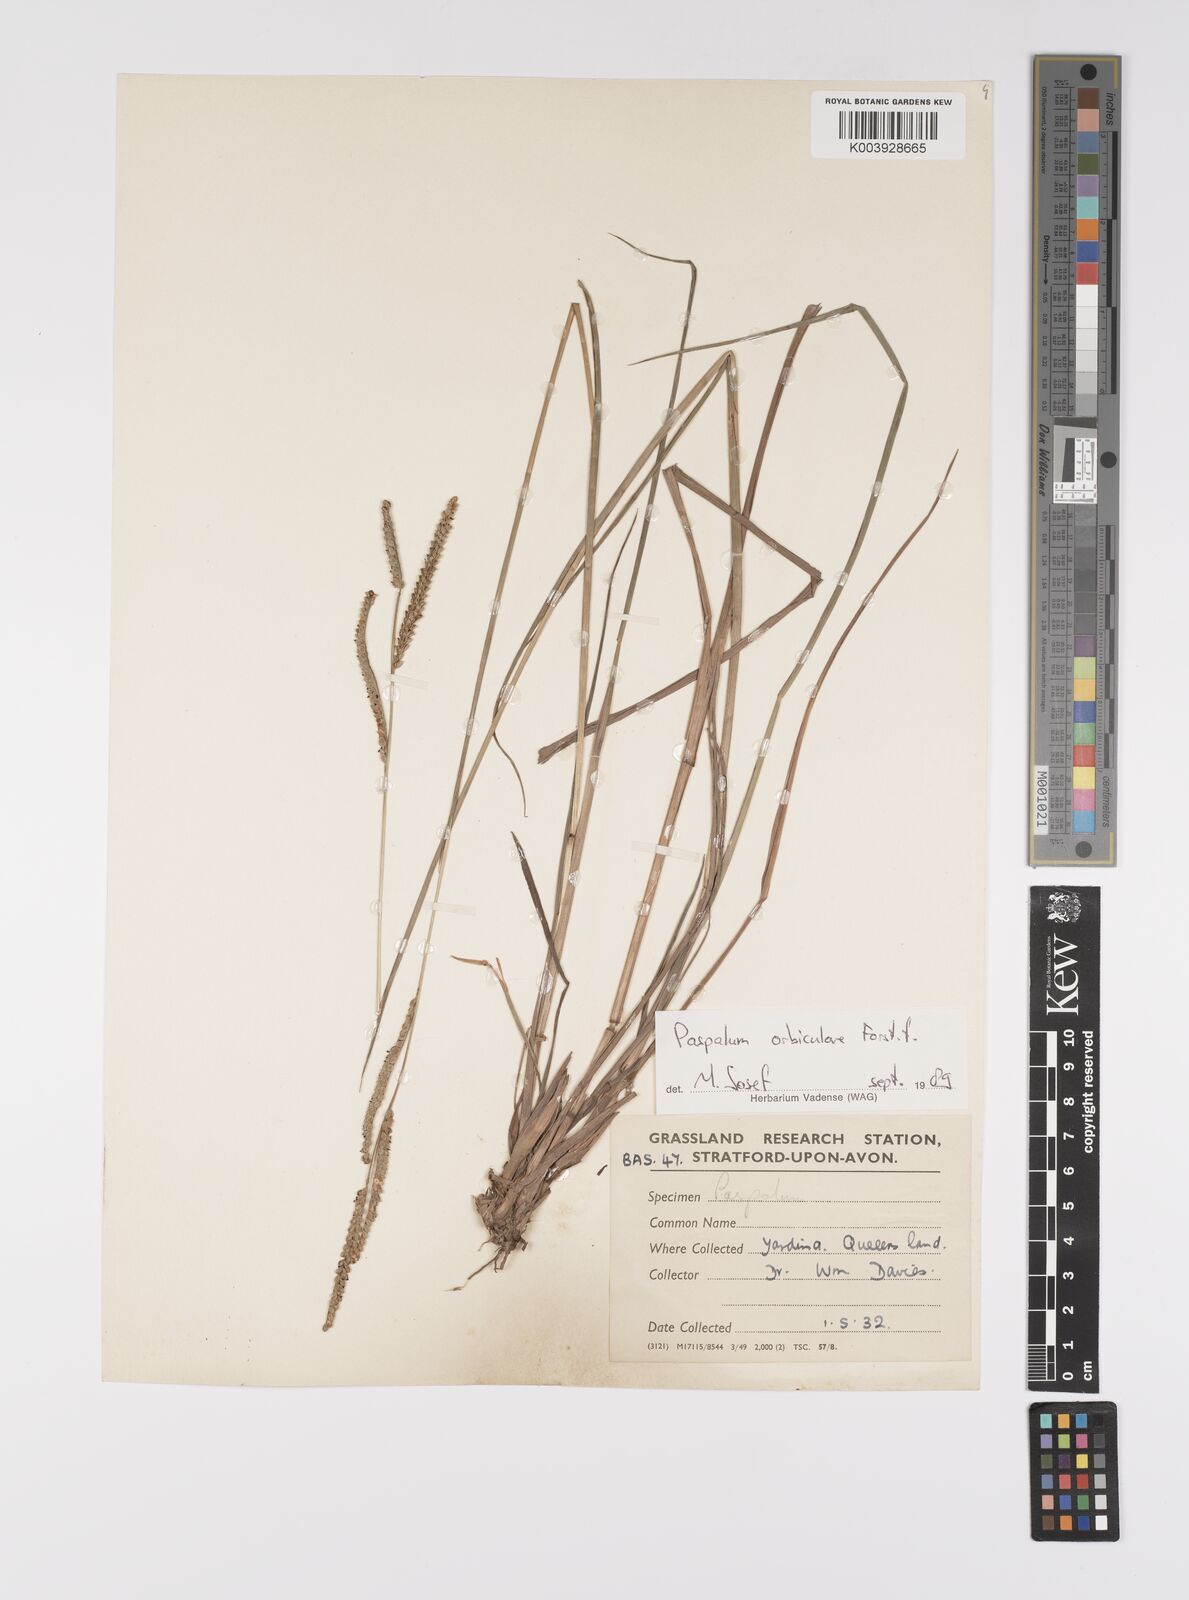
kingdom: Plantae
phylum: Tracheophyta
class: Liliopsida
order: Poales
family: Poaceae
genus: Paspalum
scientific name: Paspalum scrobiculatum
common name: Kodo millet
